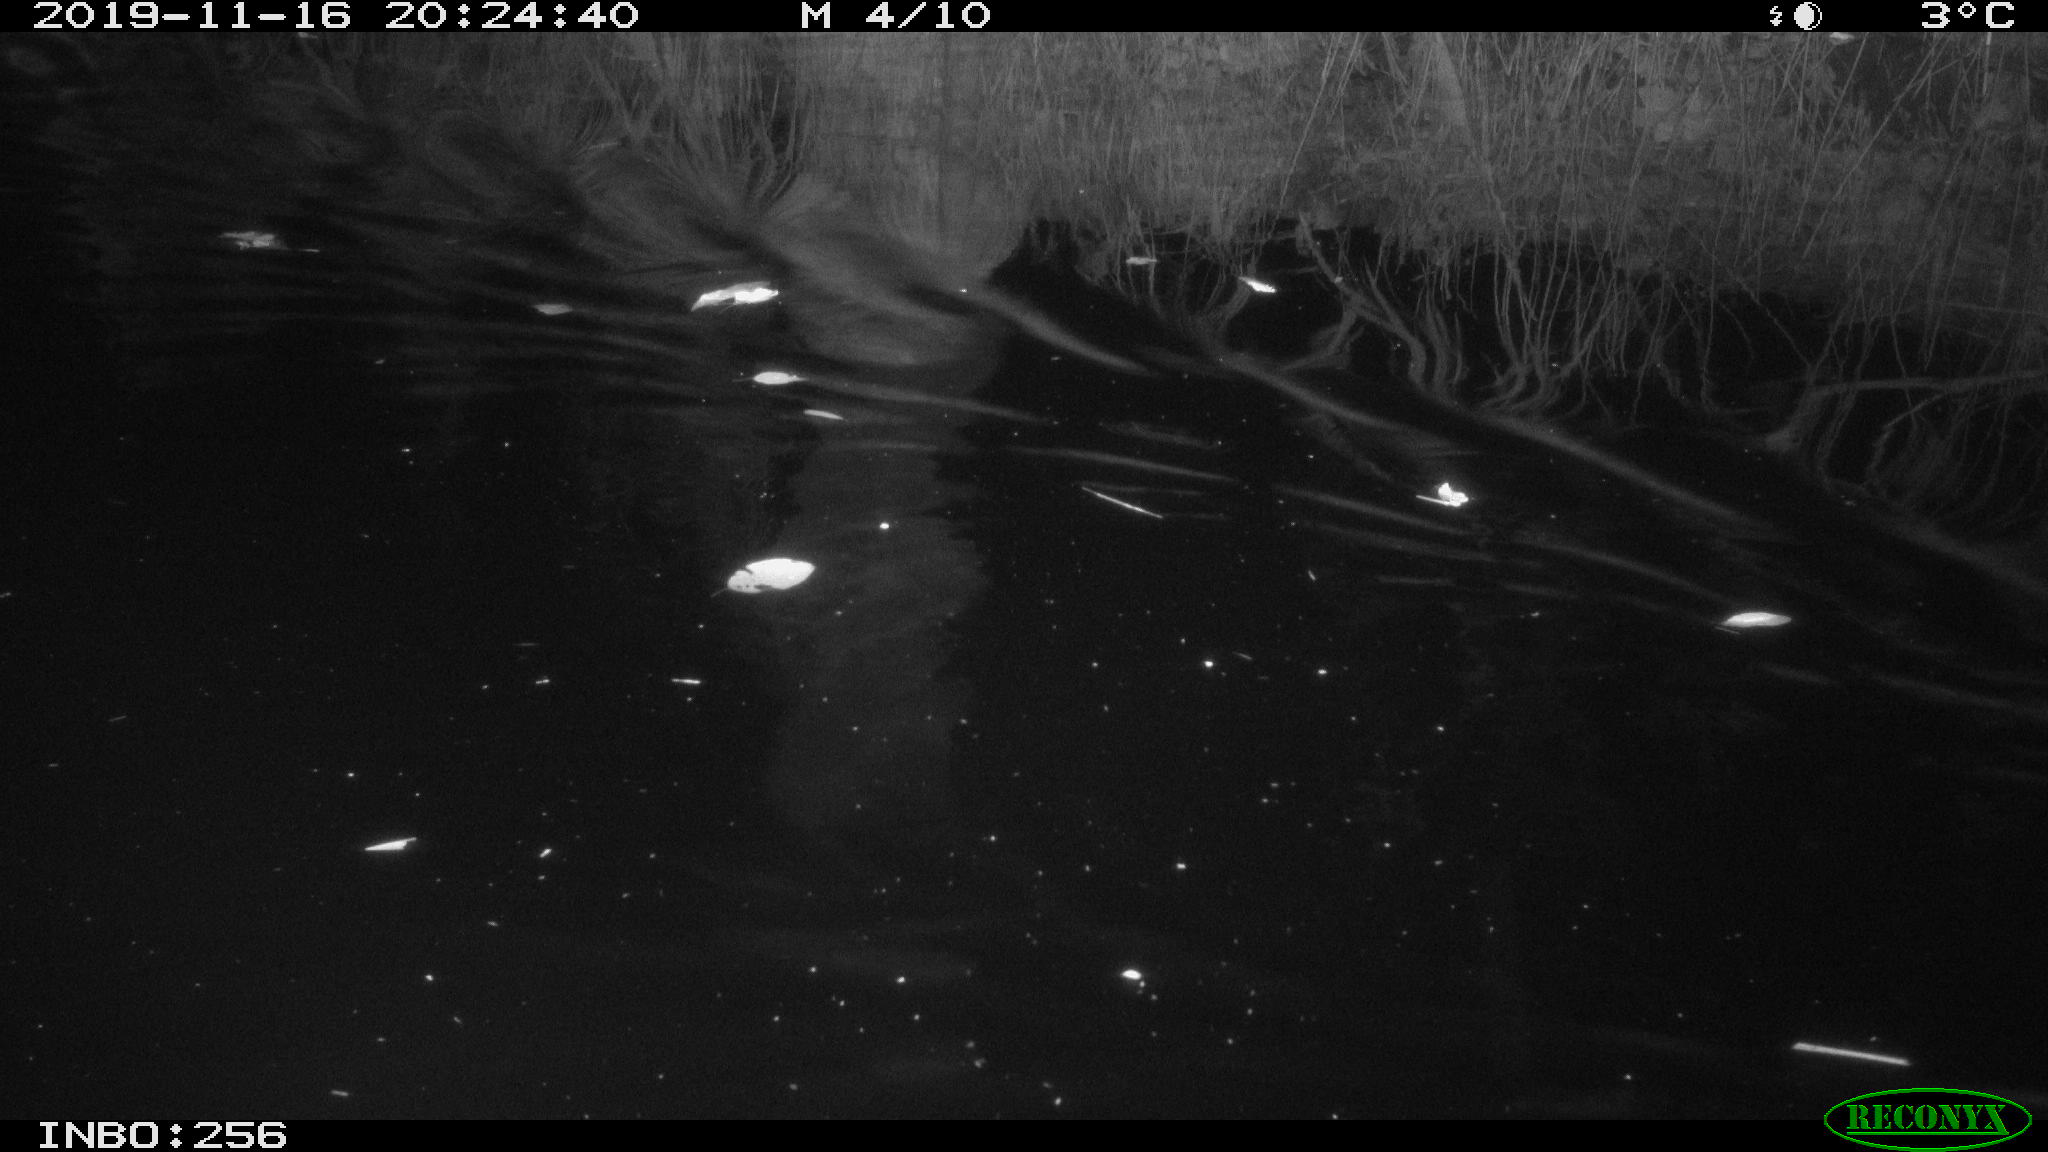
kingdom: Animalia
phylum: Chordata
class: Mammalia
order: Rodentia
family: Cricetidae
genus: Ondatra
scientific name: Ondatra zibethicus
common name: Muskrat
